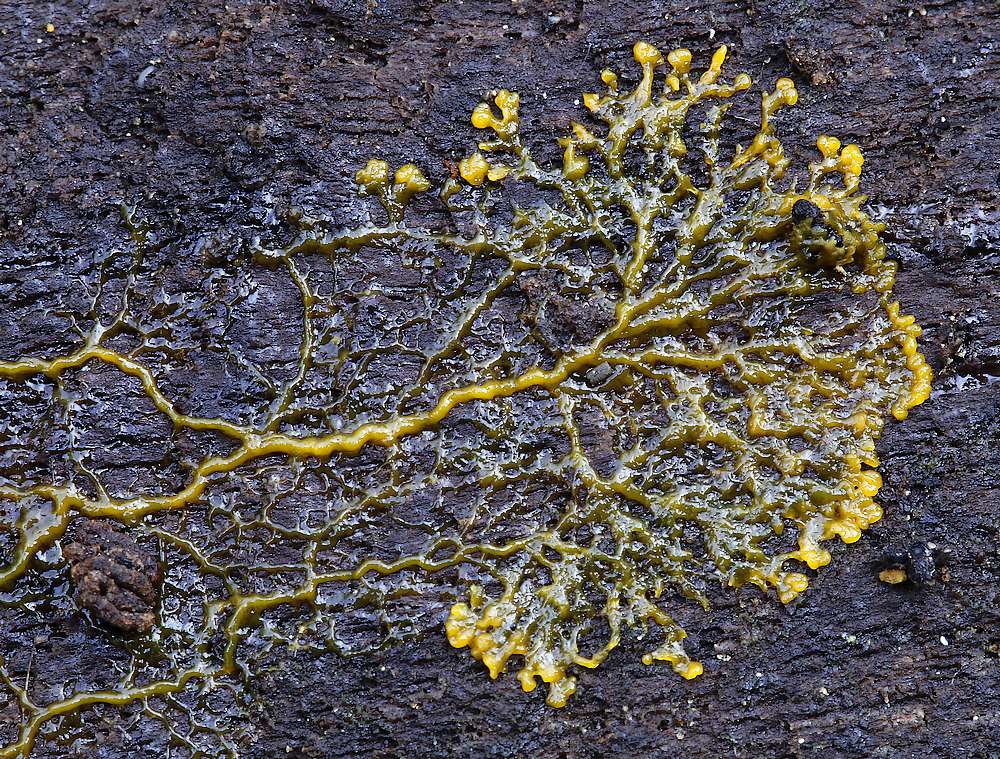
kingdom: Protozoa
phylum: Mycetozoa
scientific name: Mycetozoa
